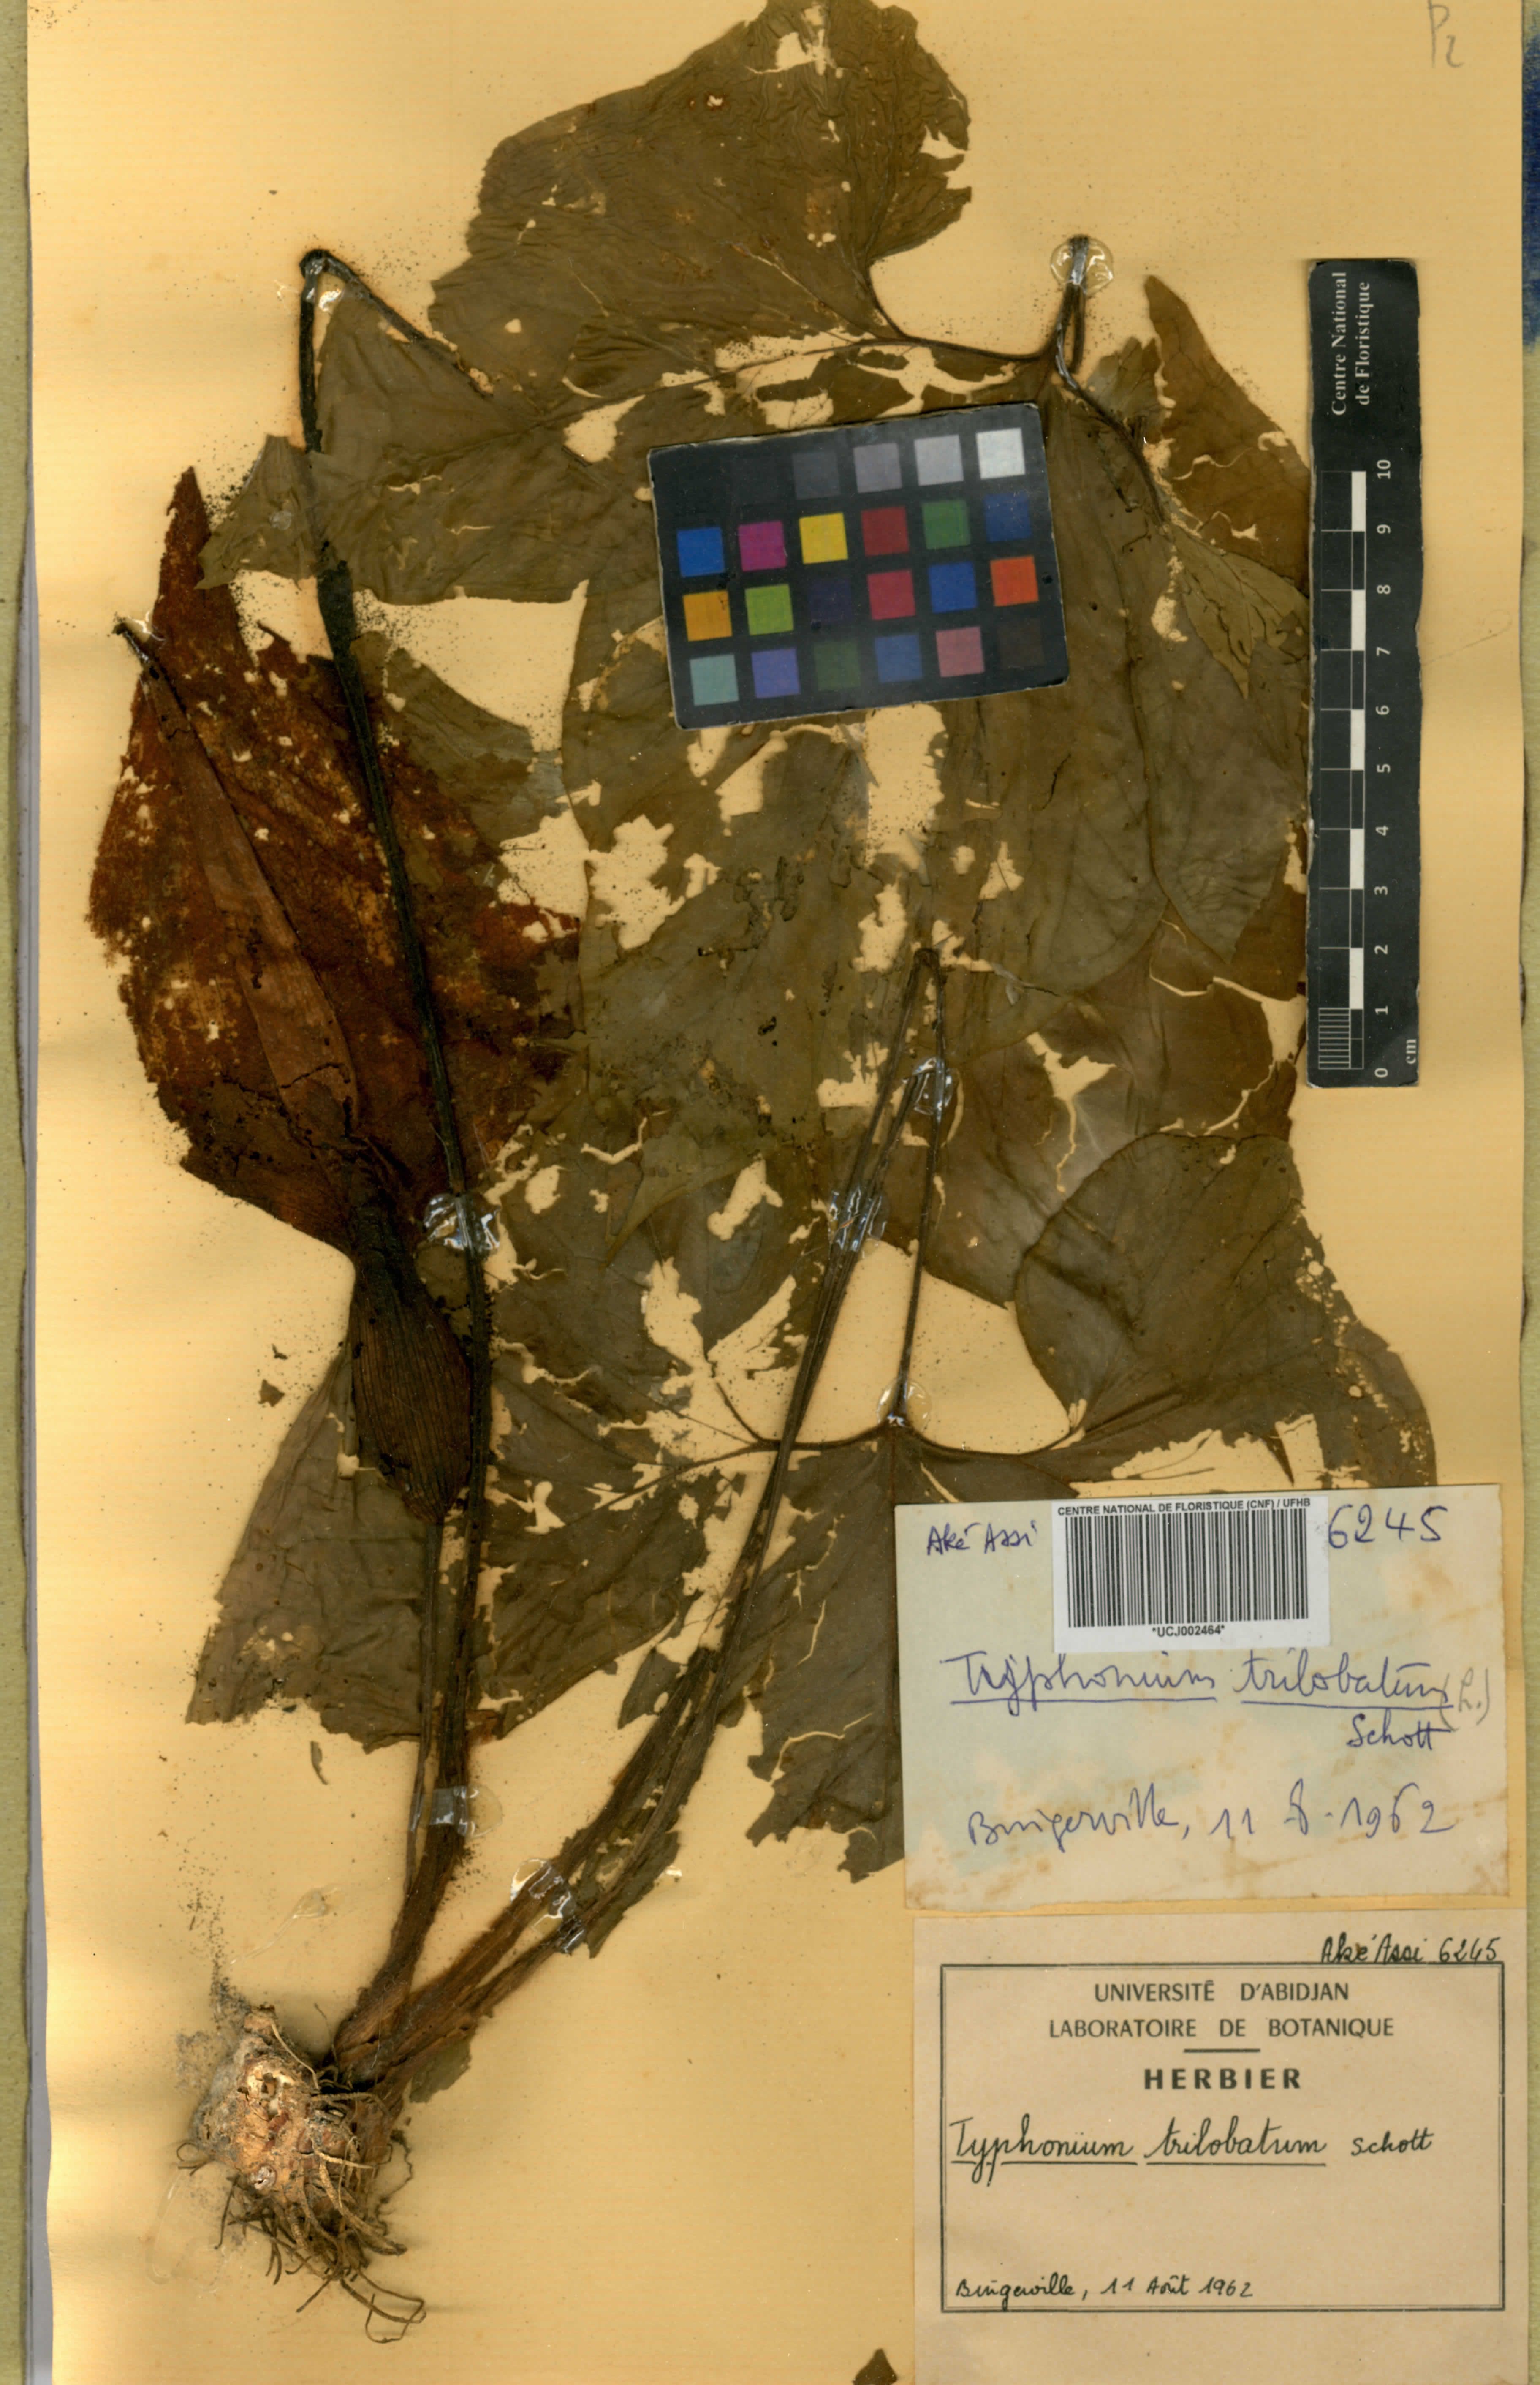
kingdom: Plantae
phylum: Tracheophyta
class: Liliopsida
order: Alismatales
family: Araceae
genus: Typhonium
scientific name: Typhonium trilobatum
